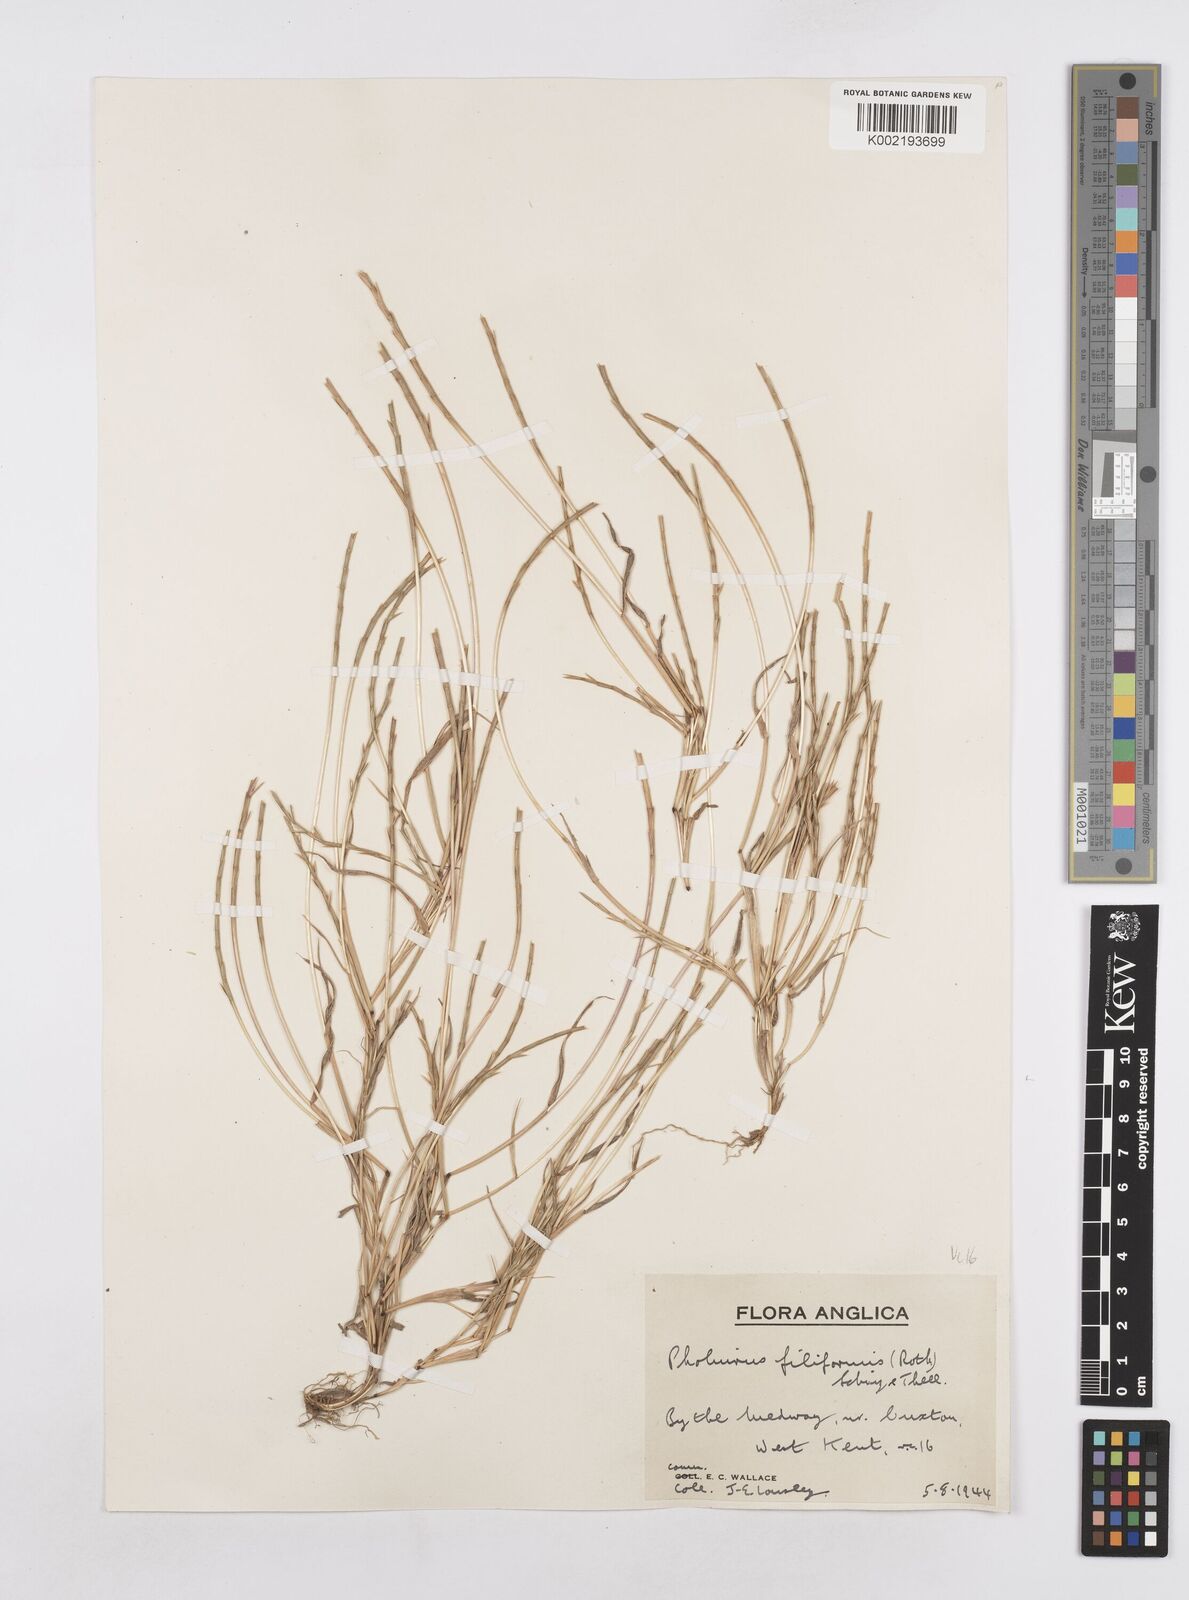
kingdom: Plantae
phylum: Tracheophyta
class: Liliopsida
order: Poales
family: Poaceae
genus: Parapholis
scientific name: Parapholis strigosa
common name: Hard-grass
